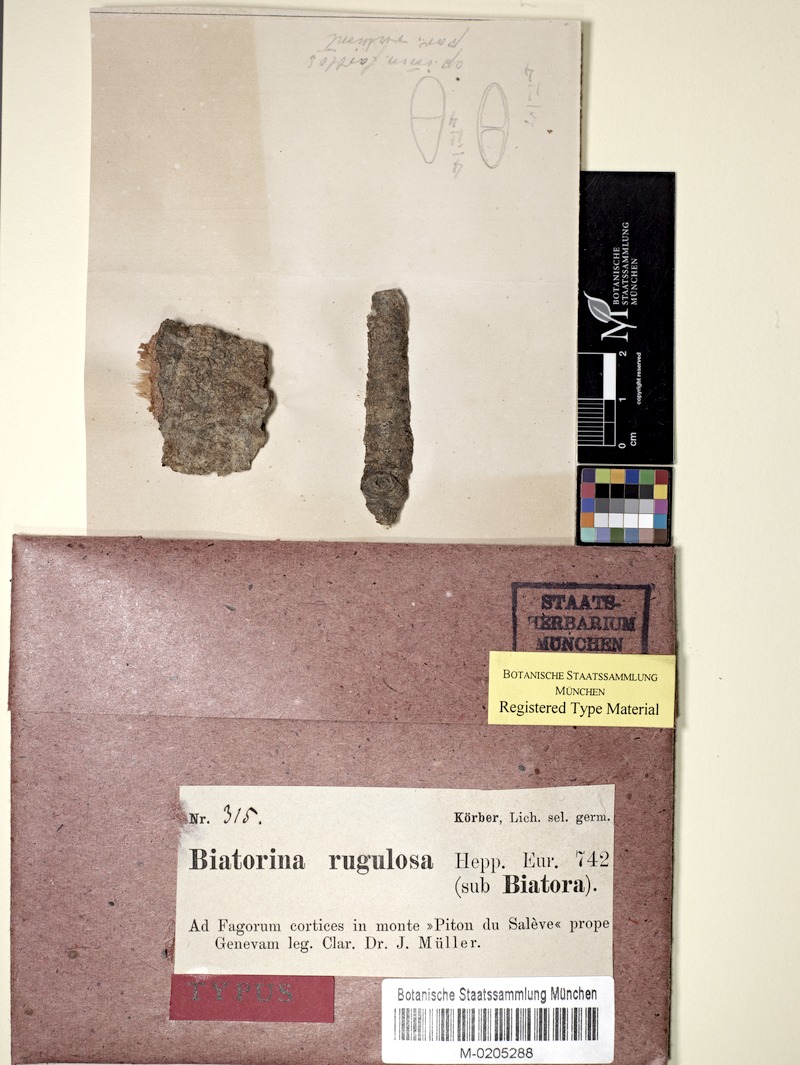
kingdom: Fungi
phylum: Ascomycota
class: Lecanoromycetes
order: Lecanorales
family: Catillariaceae
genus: Catillaria
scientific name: Catillaria rugulosa
